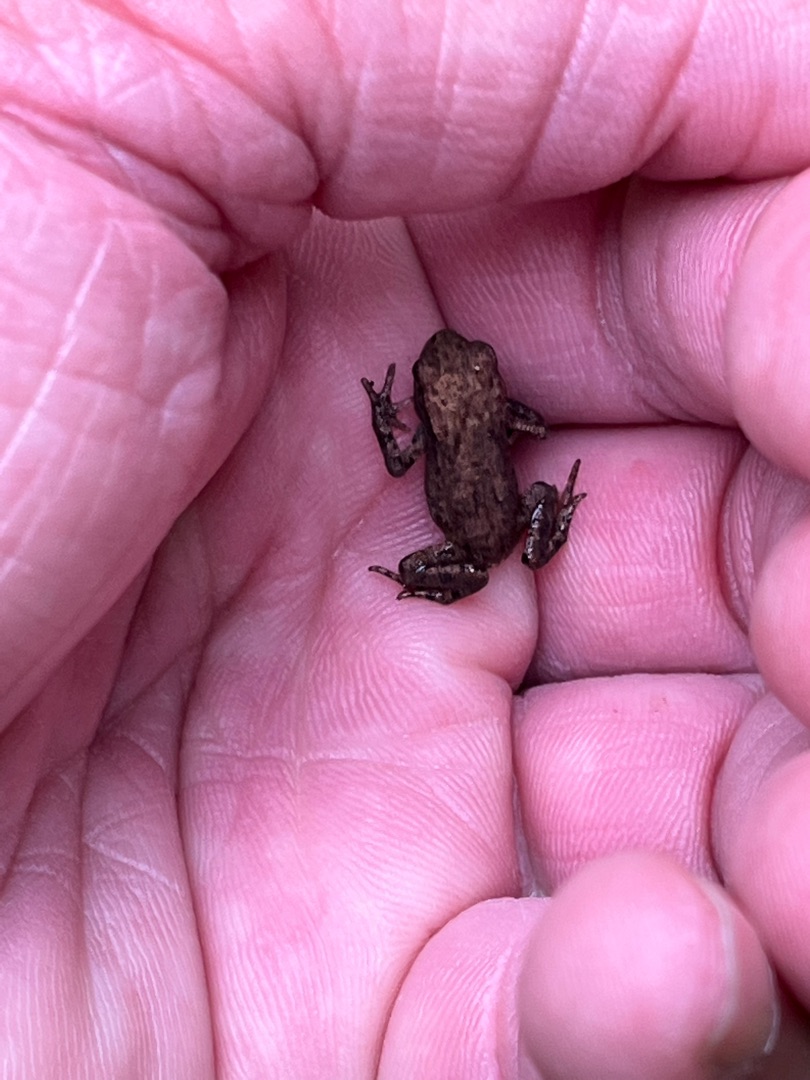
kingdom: Animalia
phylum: Chordata
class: Amphibia
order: Anura
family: Bufonidae
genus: Bufo
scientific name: Bufo bufo
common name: Skrubtudse
